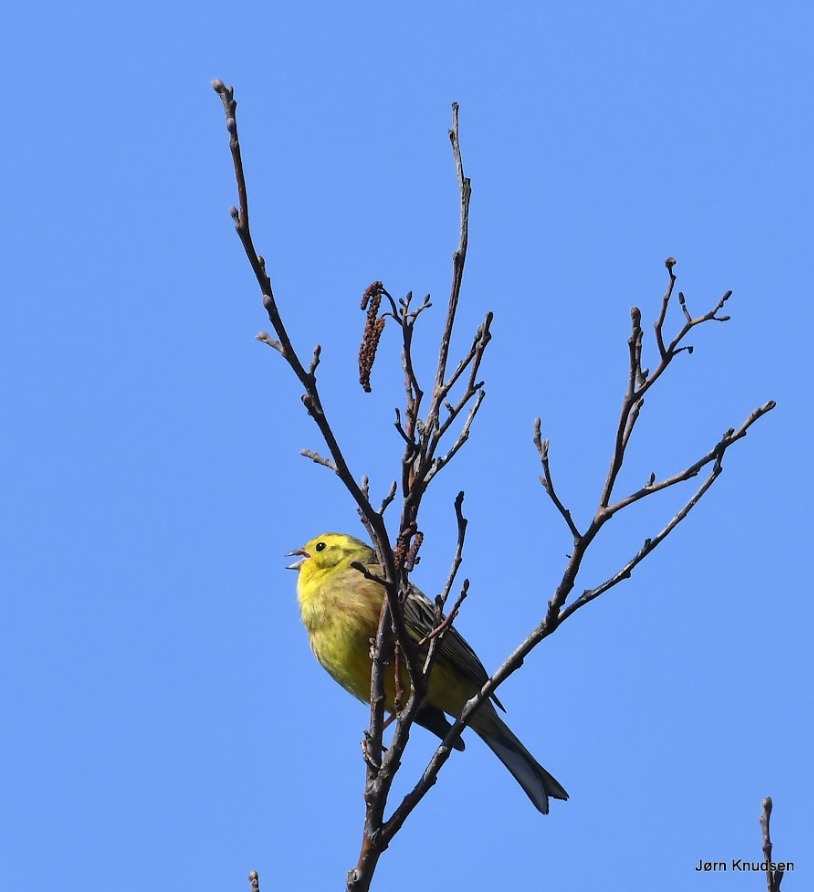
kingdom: Animalia
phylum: Chordata
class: Aves
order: Passeriformes
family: Emberizidae
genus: Emberiza
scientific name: Emberiza citrinella
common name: Gulspurv
